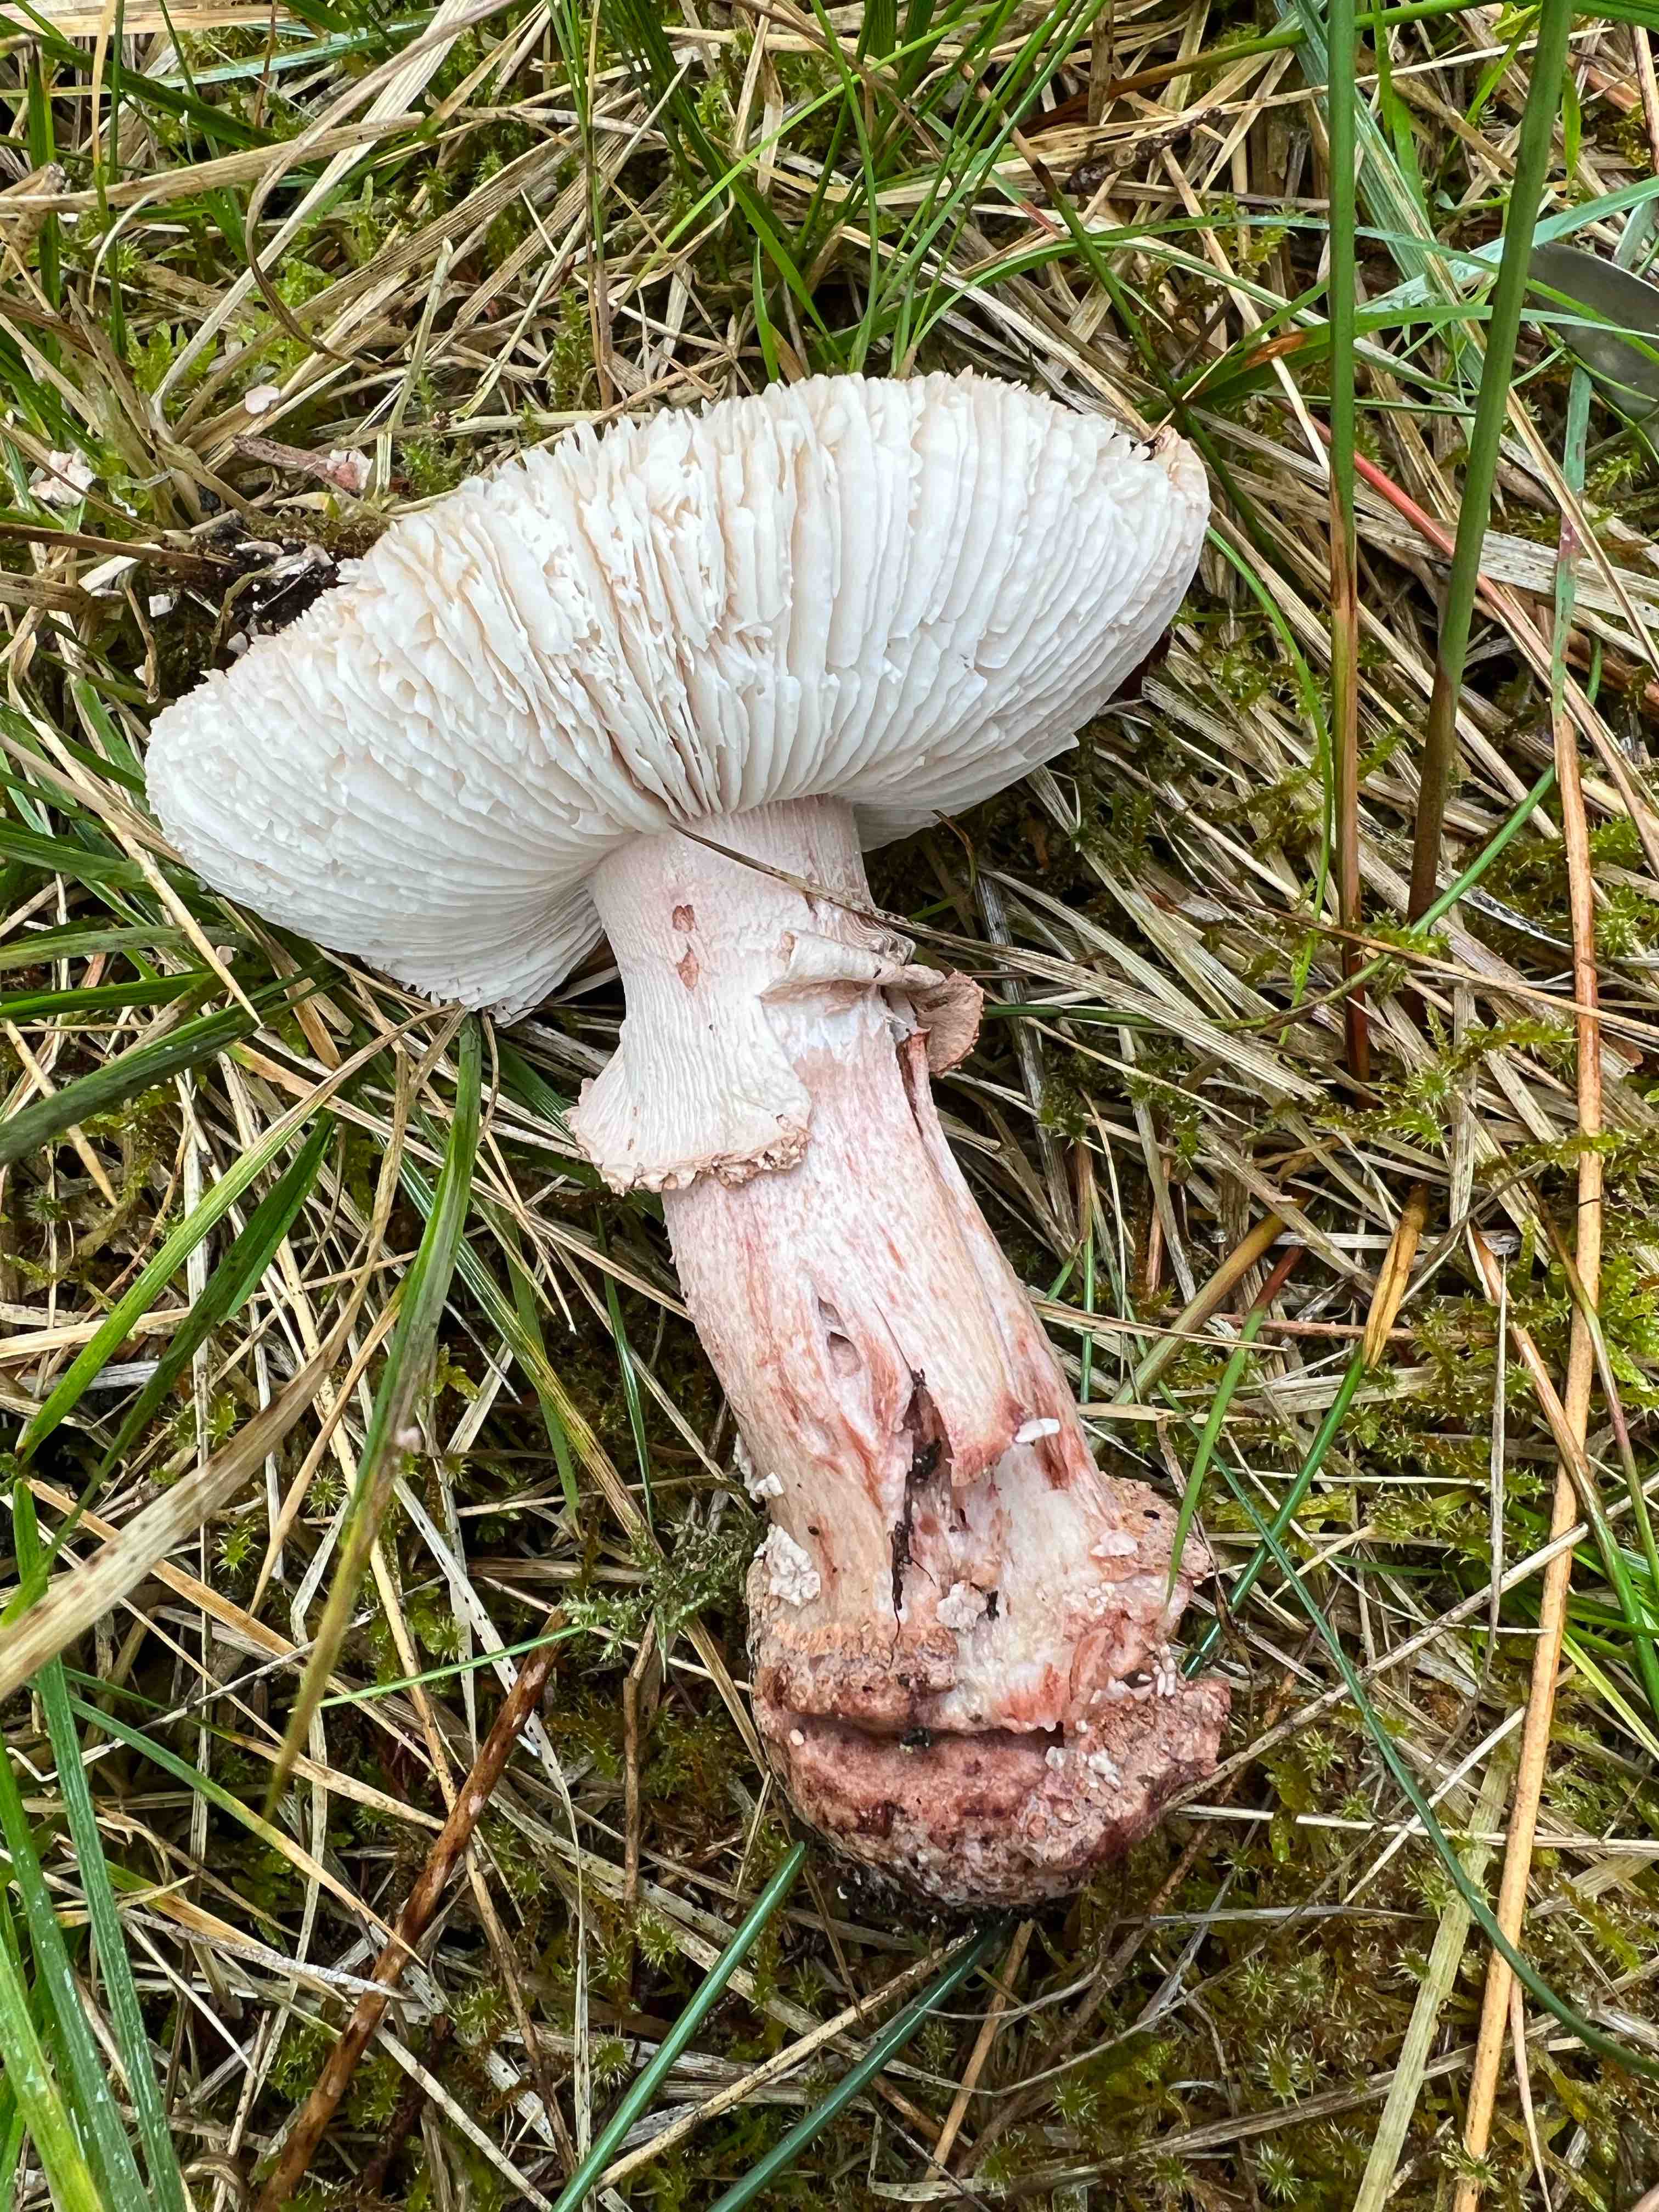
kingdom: Fungi
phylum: Basidiomycota
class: Agaricomycetes
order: Agaricales
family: Amanitaceae
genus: Amanita
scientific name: Amanita rubescens
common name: rødmende fluesvamp
